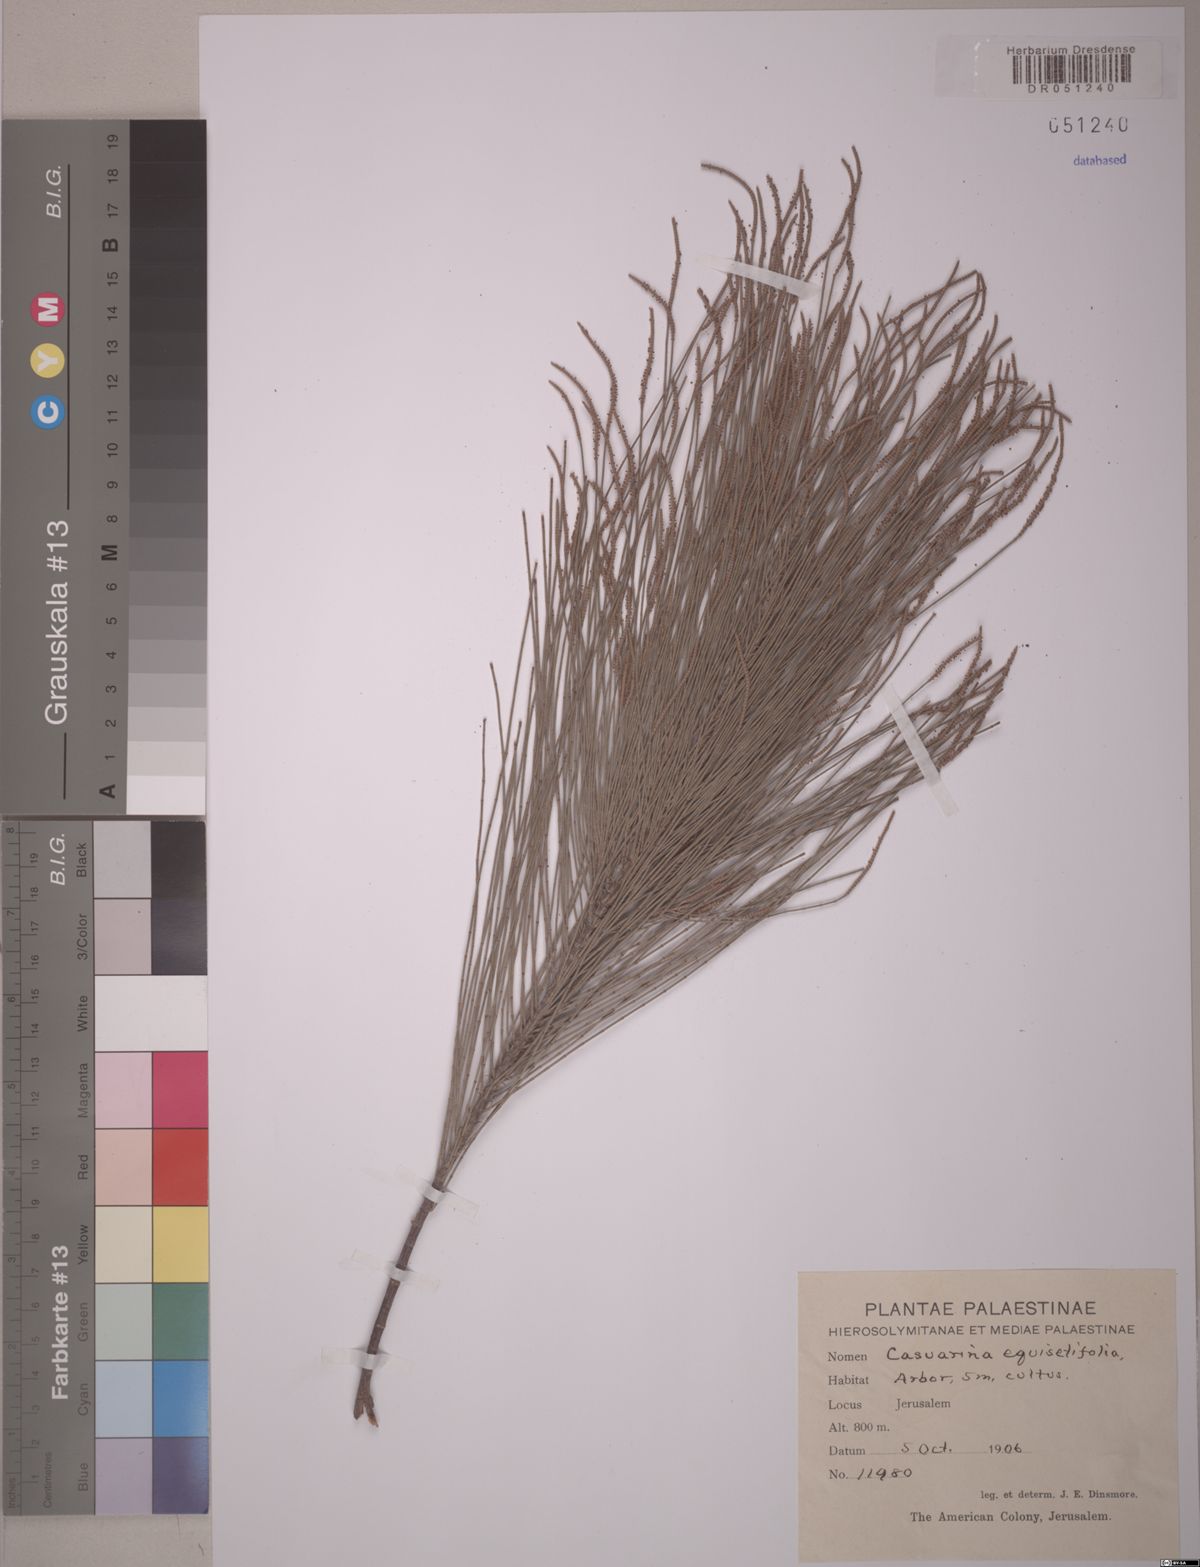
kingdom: Plantae
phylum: Tracheophyta
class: Magnoliopsida
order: Fagales
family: Casuarinaceae
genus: Casuarina
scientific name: Casuarina equisetifolia
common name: Beach sheoak
